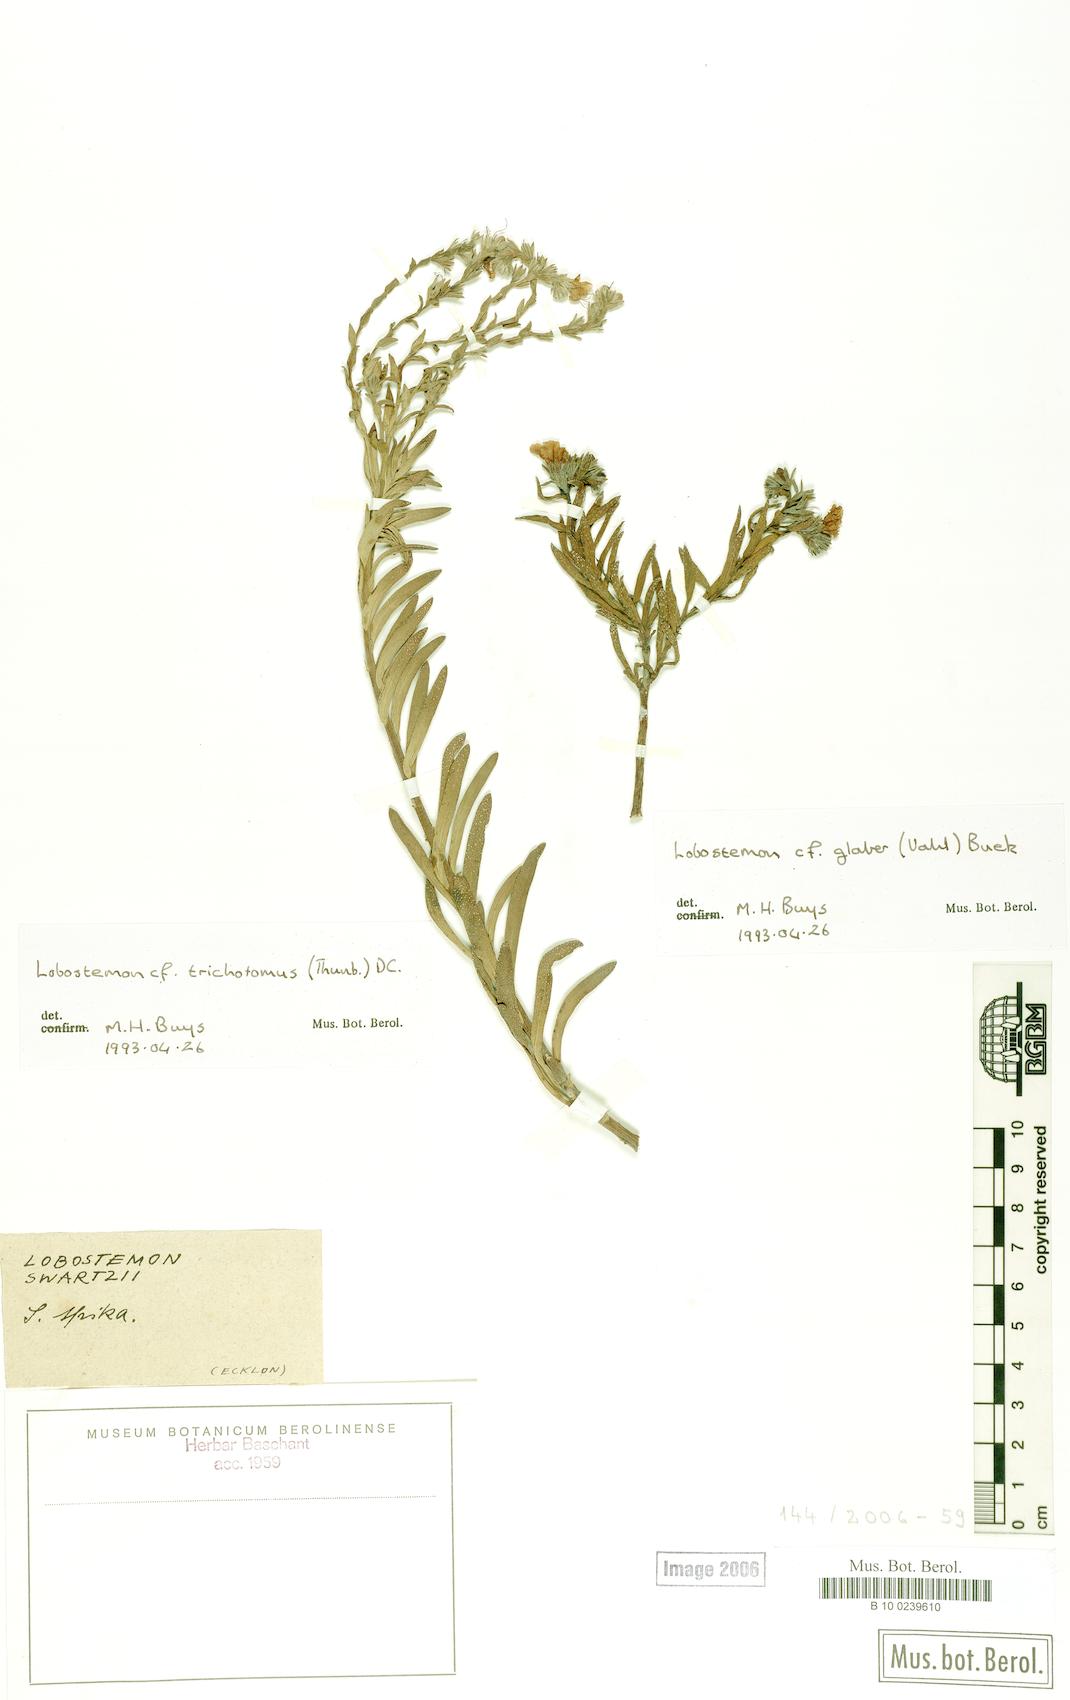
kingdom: Plantae
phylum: Tracheophyta
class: Magnoliopsida
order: Boraginales
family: Boraginaceae
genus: Lobostemon
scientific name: Lobostemon trichotomus
